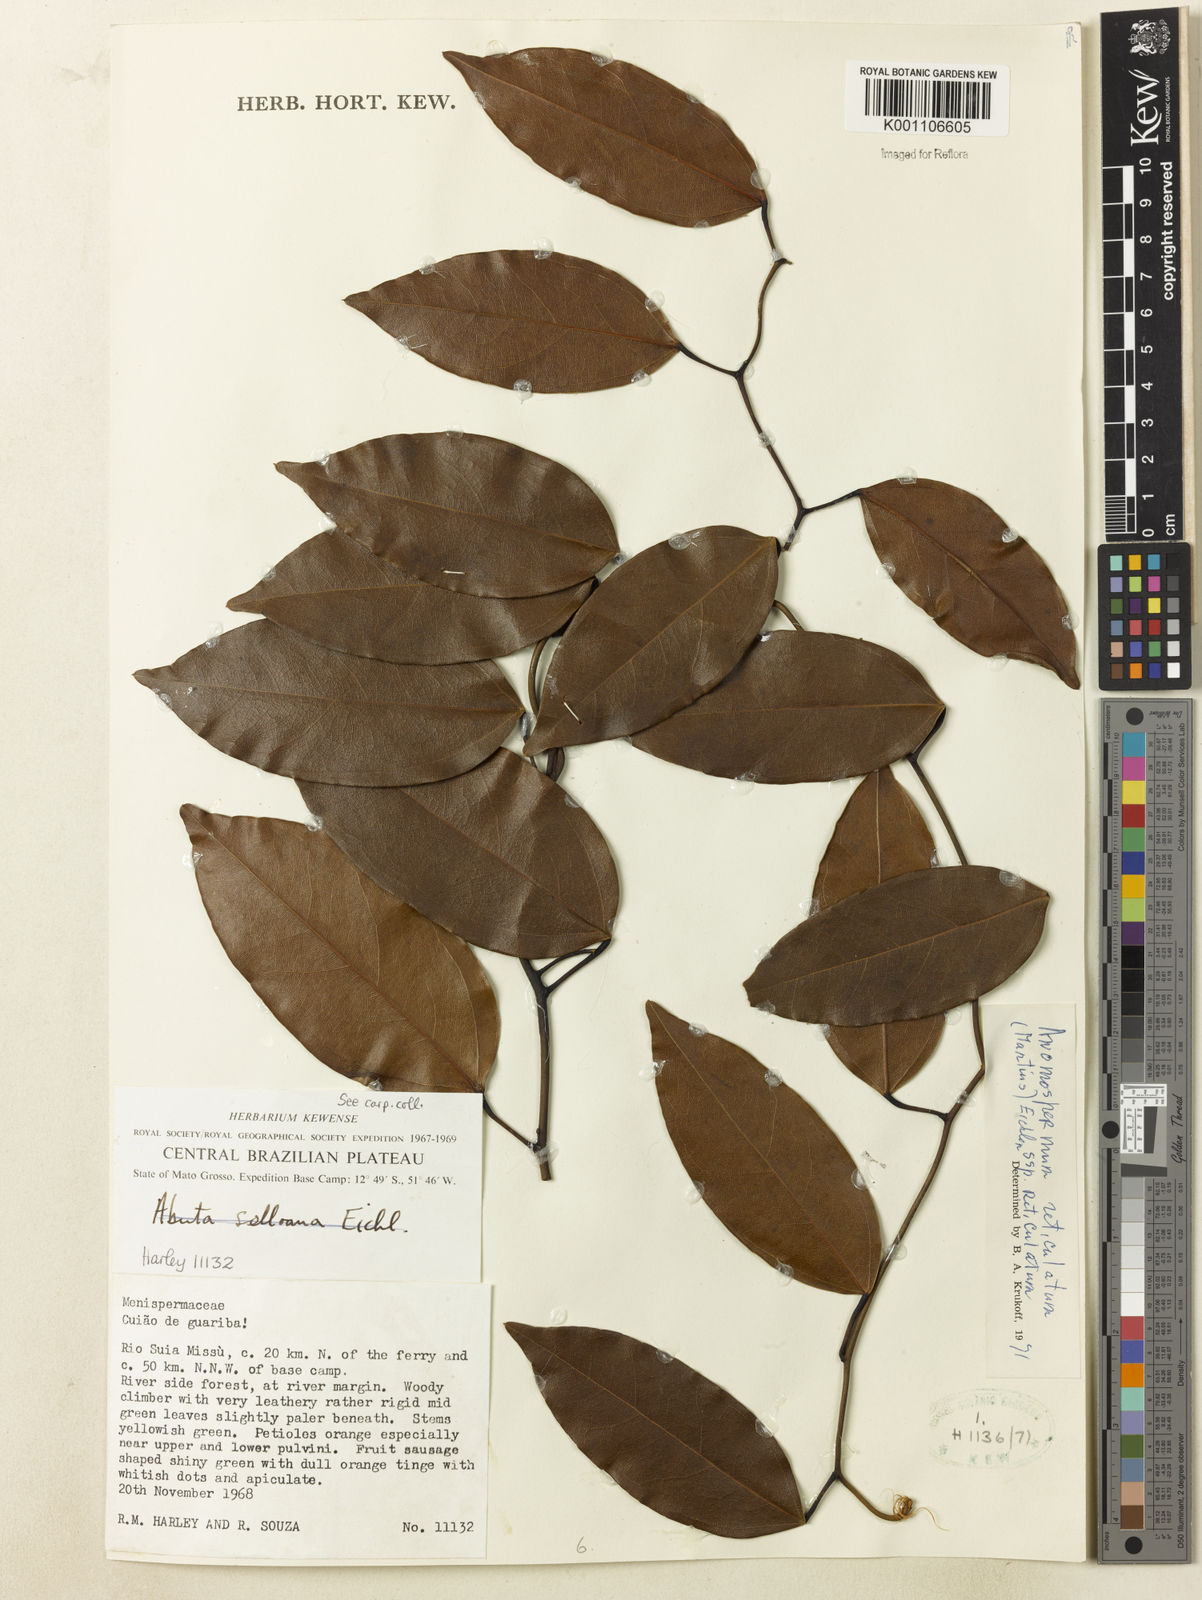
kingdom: Plantae
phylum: Tracheophyta
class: Magnoliopsida
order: Ranunculales
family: Menispermaceae
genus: Anomospermum
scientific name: Anomospermum reticulatum
